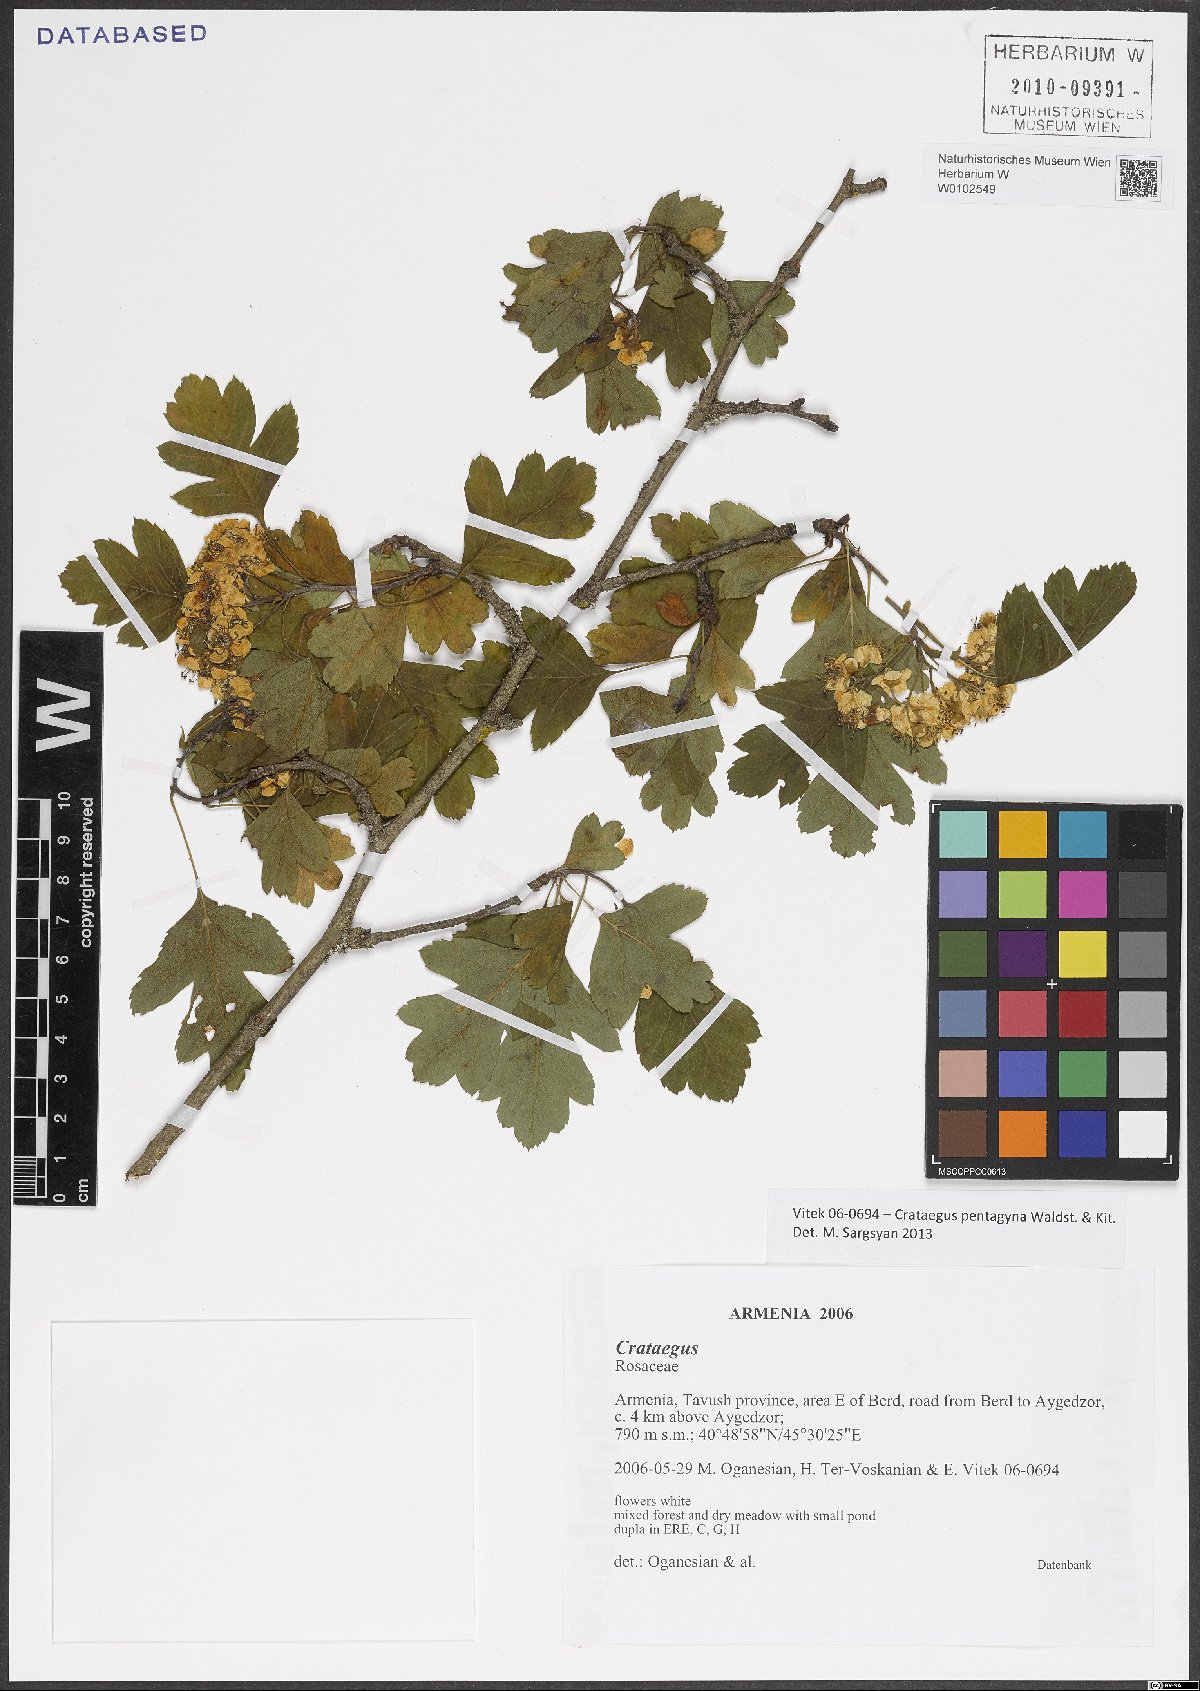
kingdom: Plantae
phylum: Tracheophyta
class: Magnoliopsida
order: Rosales
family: Rosaceae
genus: Crataegus
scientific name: Crataegus pentagyna
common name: Small-flowered black hawthorn
